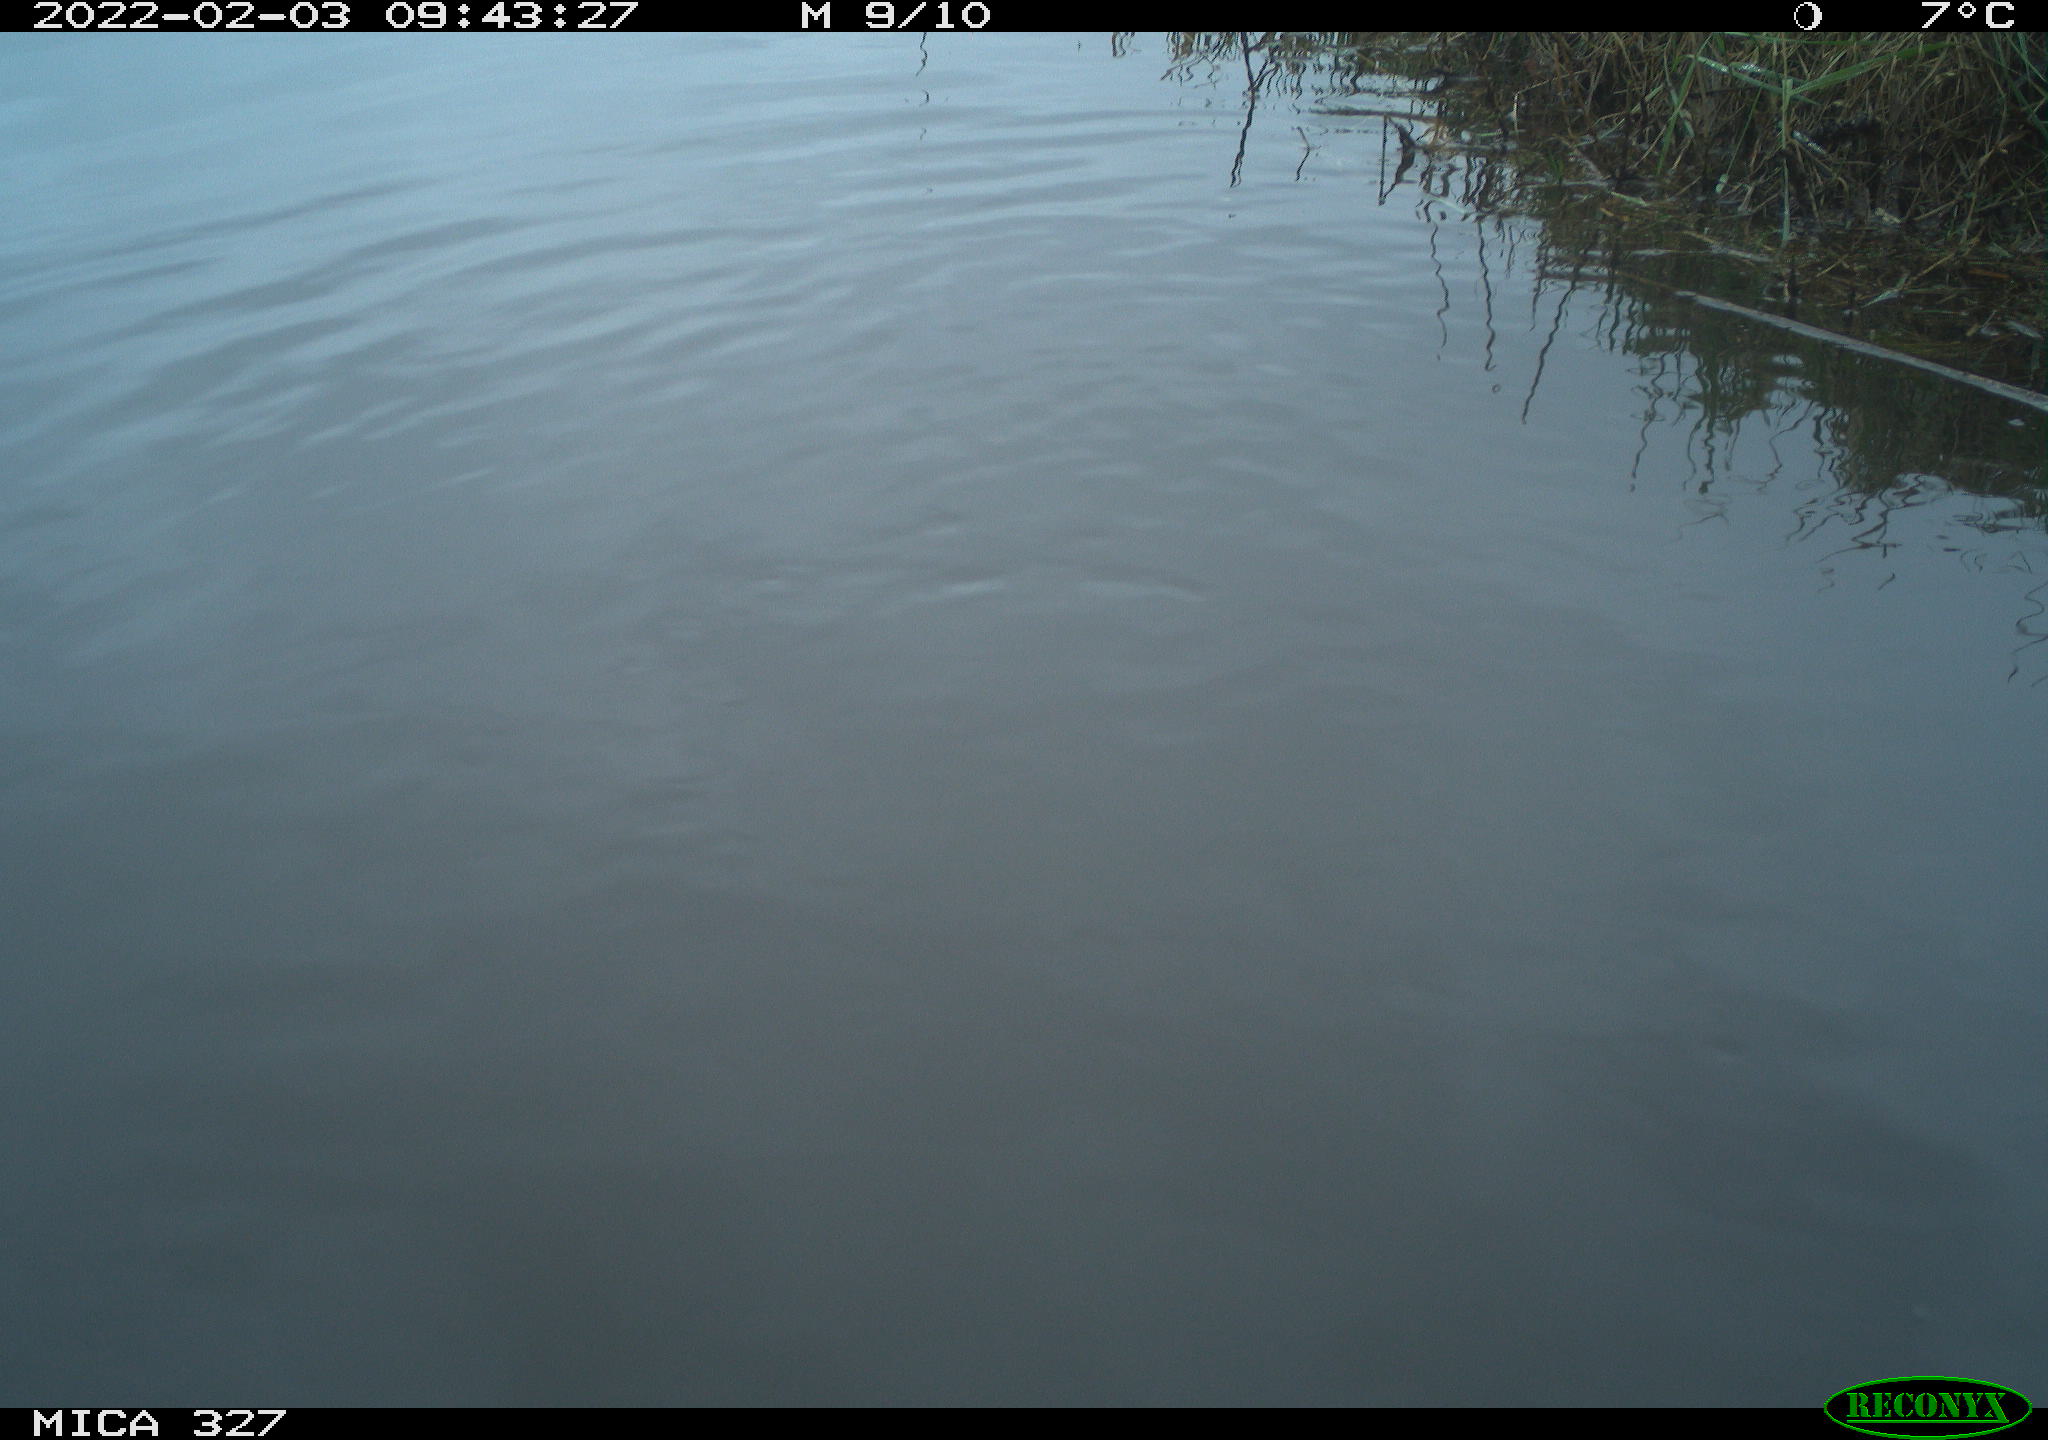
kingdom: Animalia
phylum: Chordata
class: Aves
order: Podicipediformes
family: Podicipedidae
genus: Tachybaptus
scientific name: Tachybaptus ruficollis
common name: Little grebe
